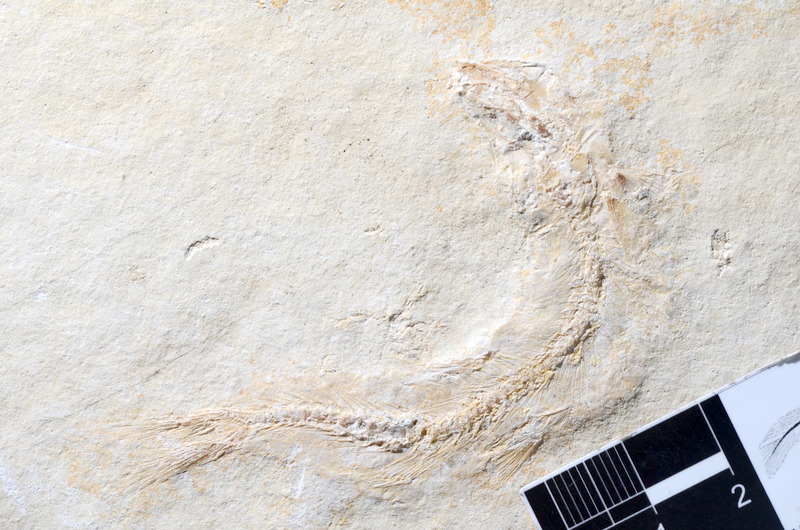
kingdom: Animalia
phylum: Chordata
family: Ascalaboidae
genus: Tharsis
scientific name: Tharsis dubius
